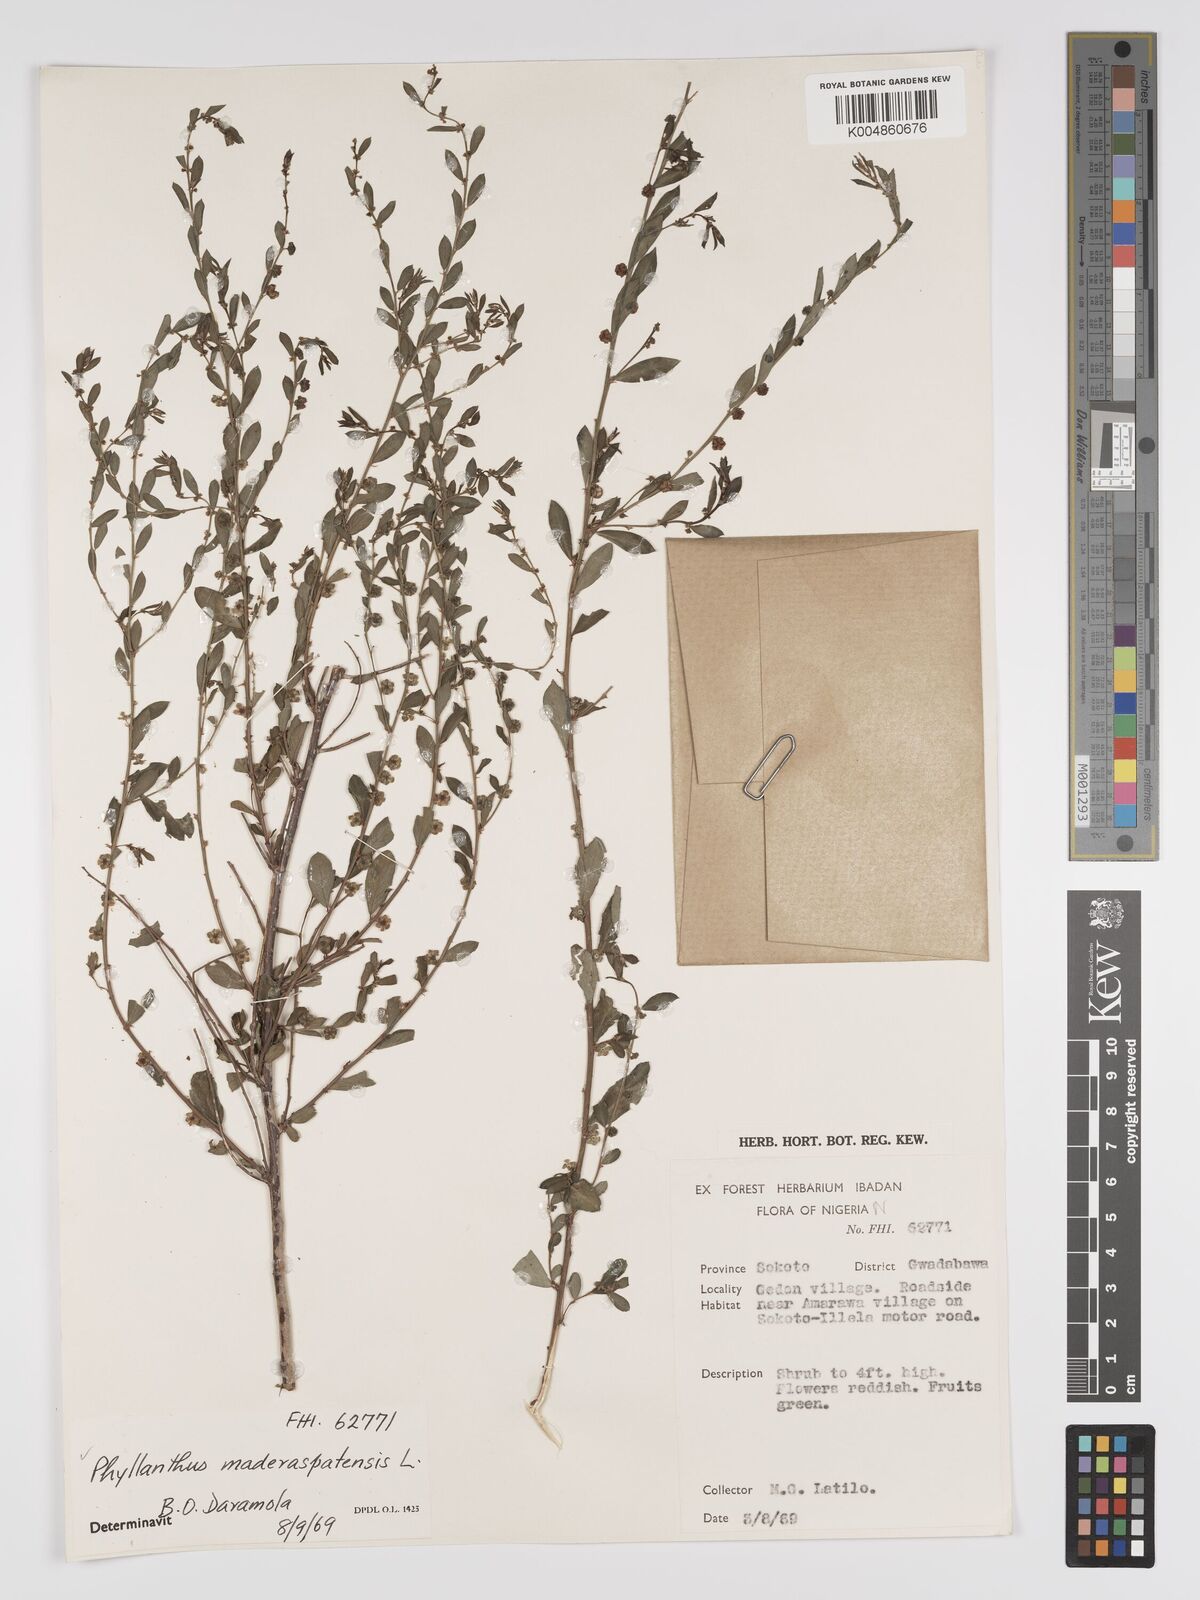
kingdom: Plantae
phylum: Tracheophyta
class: Magnoliopsida
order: Malpighiales
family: Phyllanthaceae
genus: Phyllanthus
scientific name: Phyllanthus
